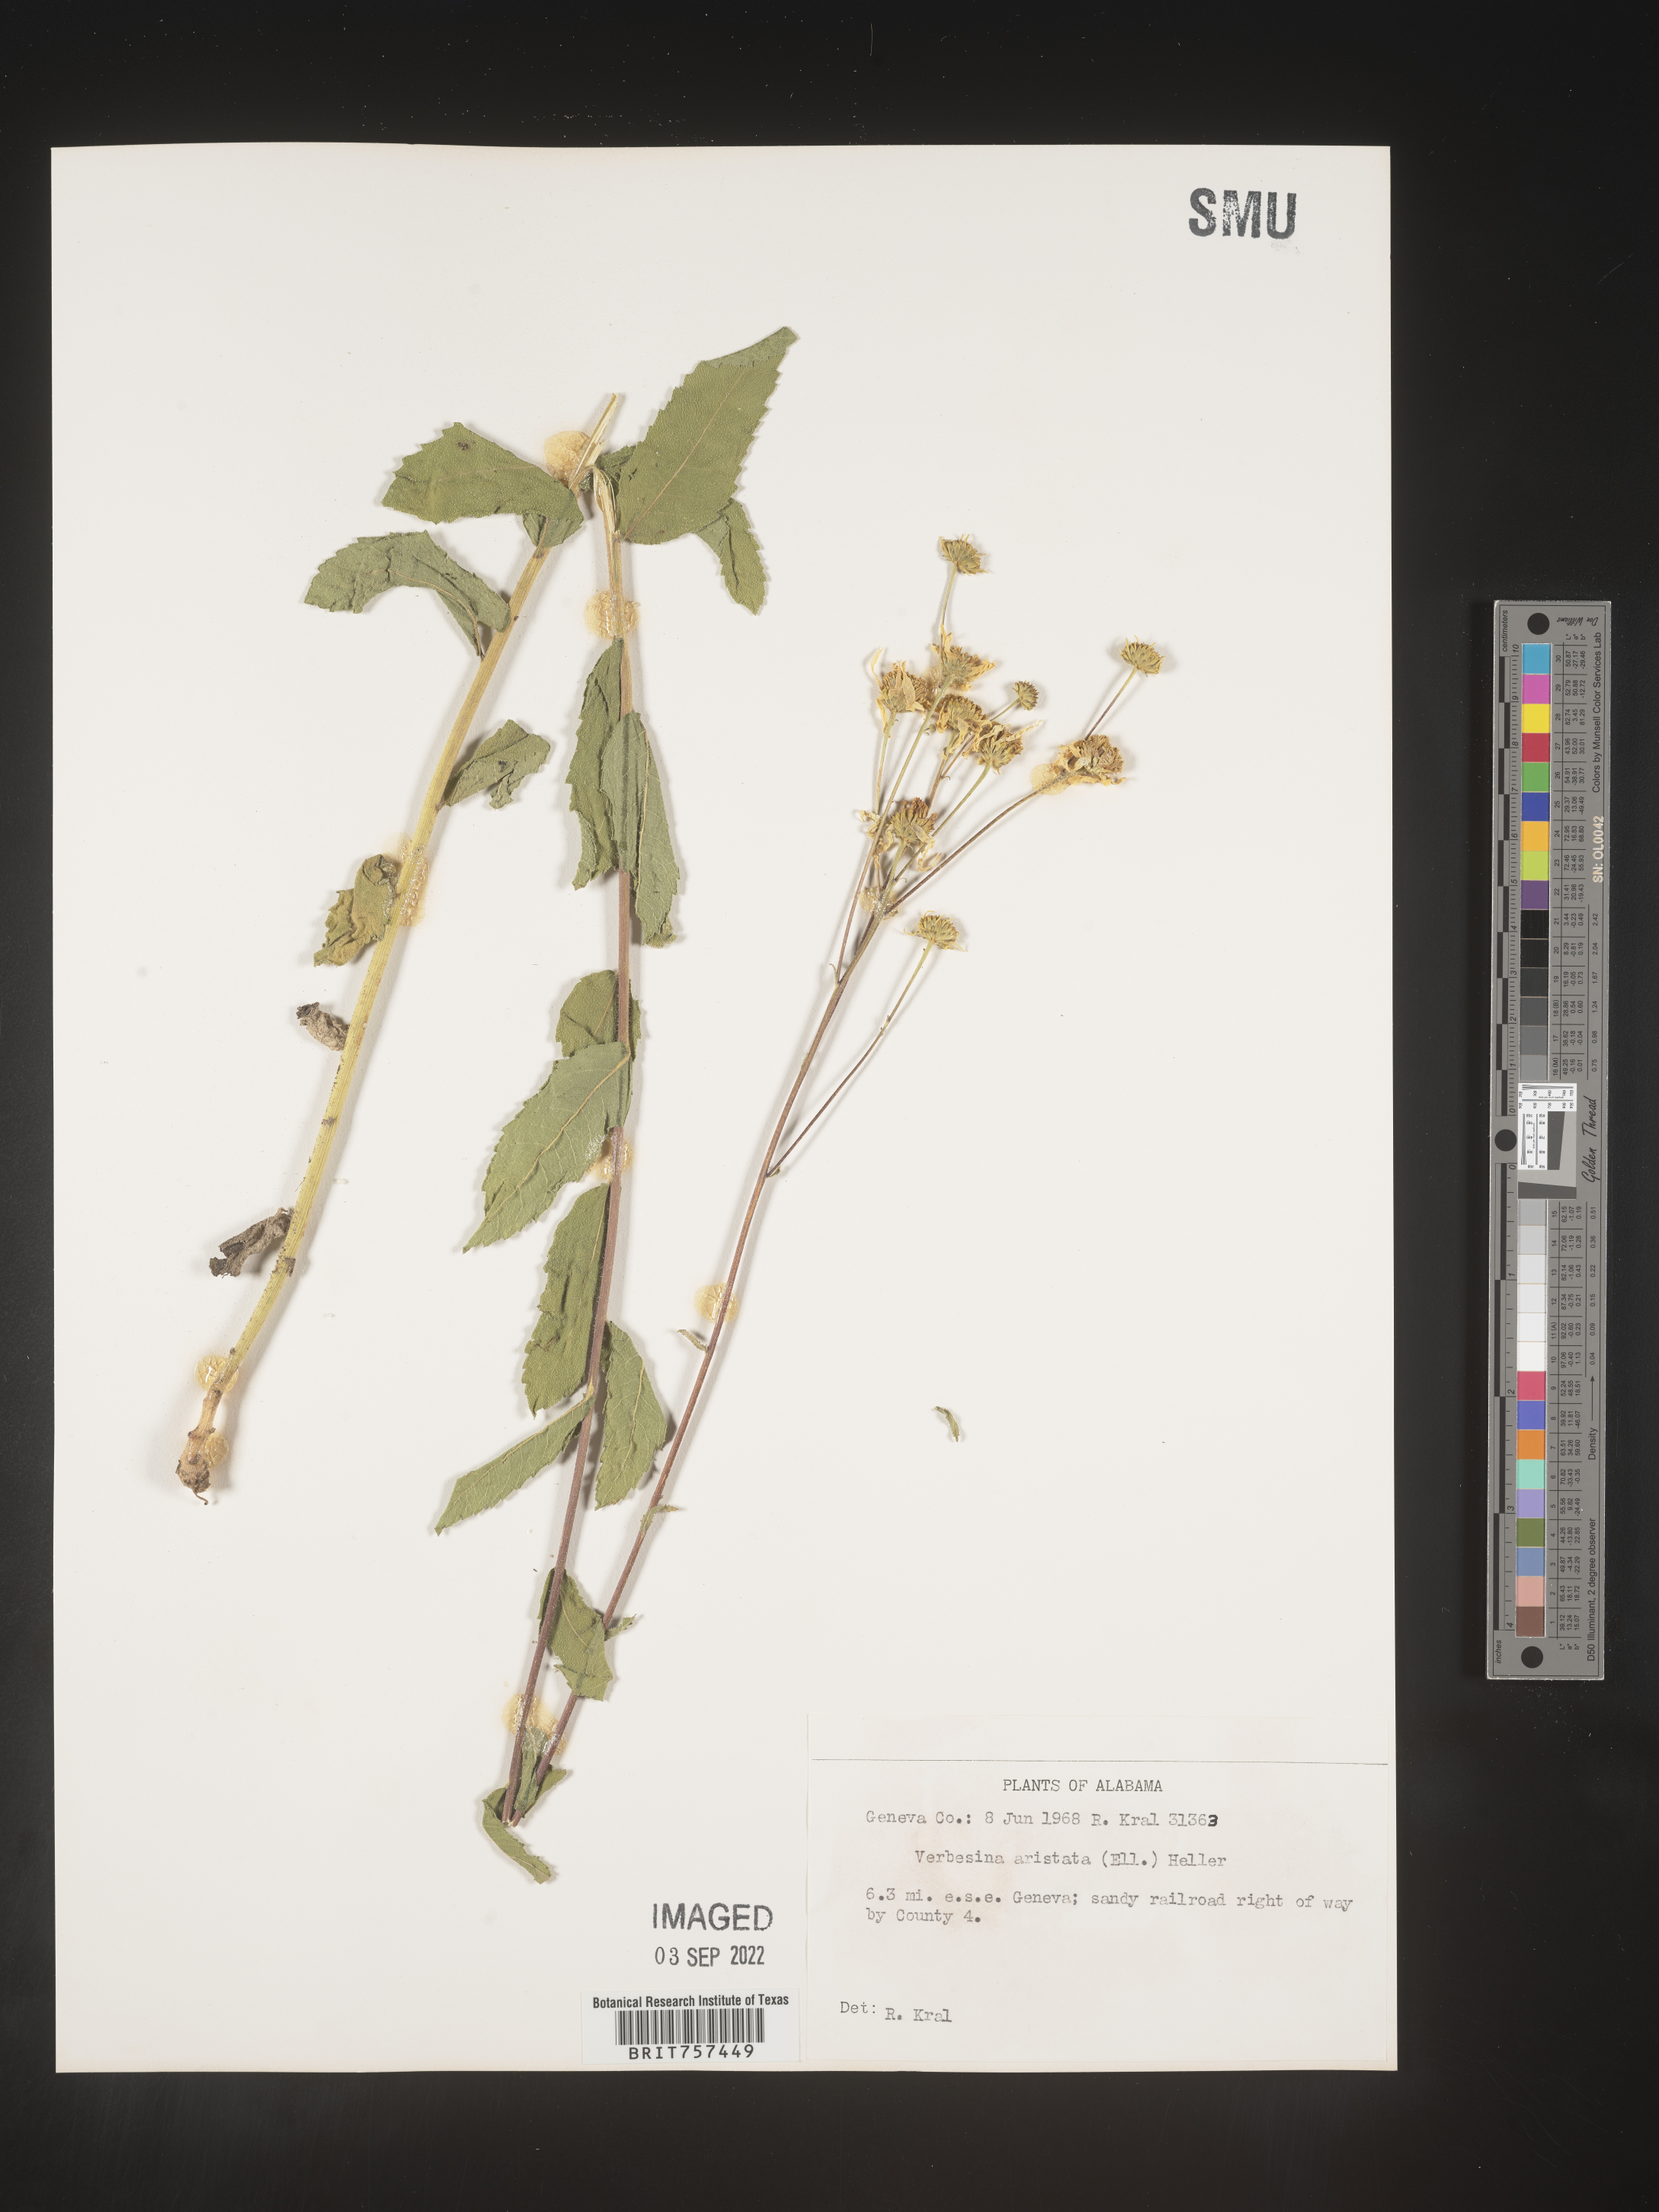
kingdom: Plantae
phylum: Tracheophyta
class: Magnoliopsida
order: Asterales
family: Asteraceae
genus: Verbesina
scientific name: Verbesina aristata
